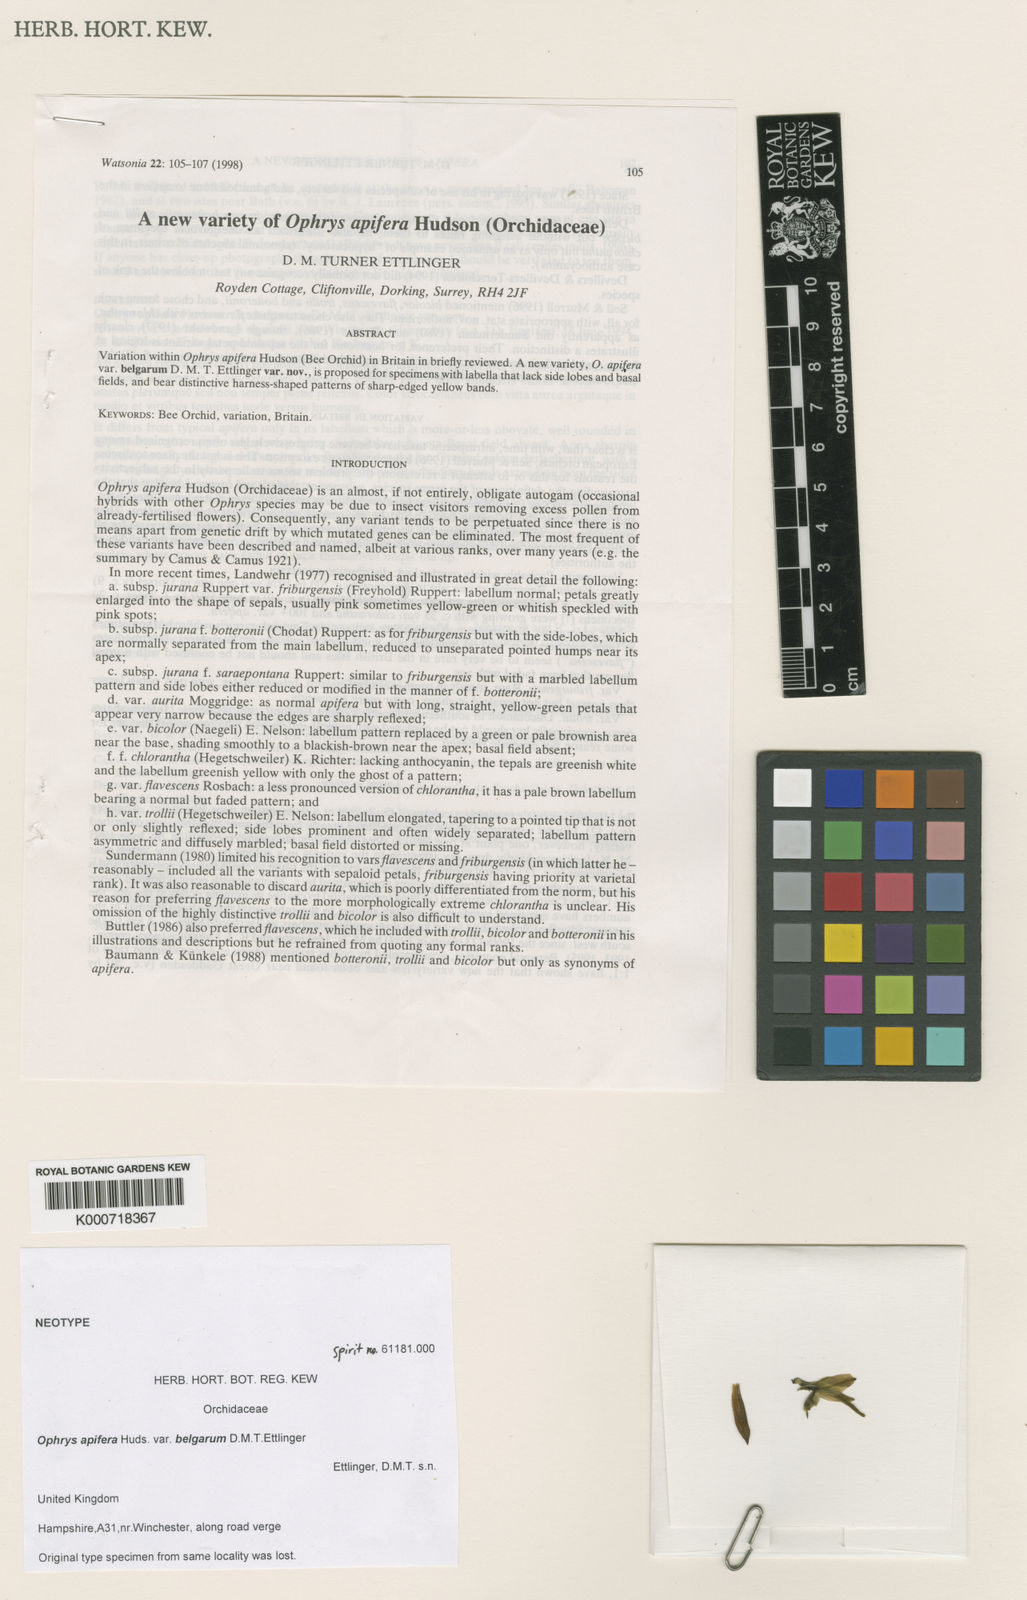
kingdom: Plantae
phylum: Tracheophyta
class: Liliopsida
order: Asparagales
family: Orchidaceae
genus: Ophrys
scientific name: Ophrys apifera
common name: Bee orchid
